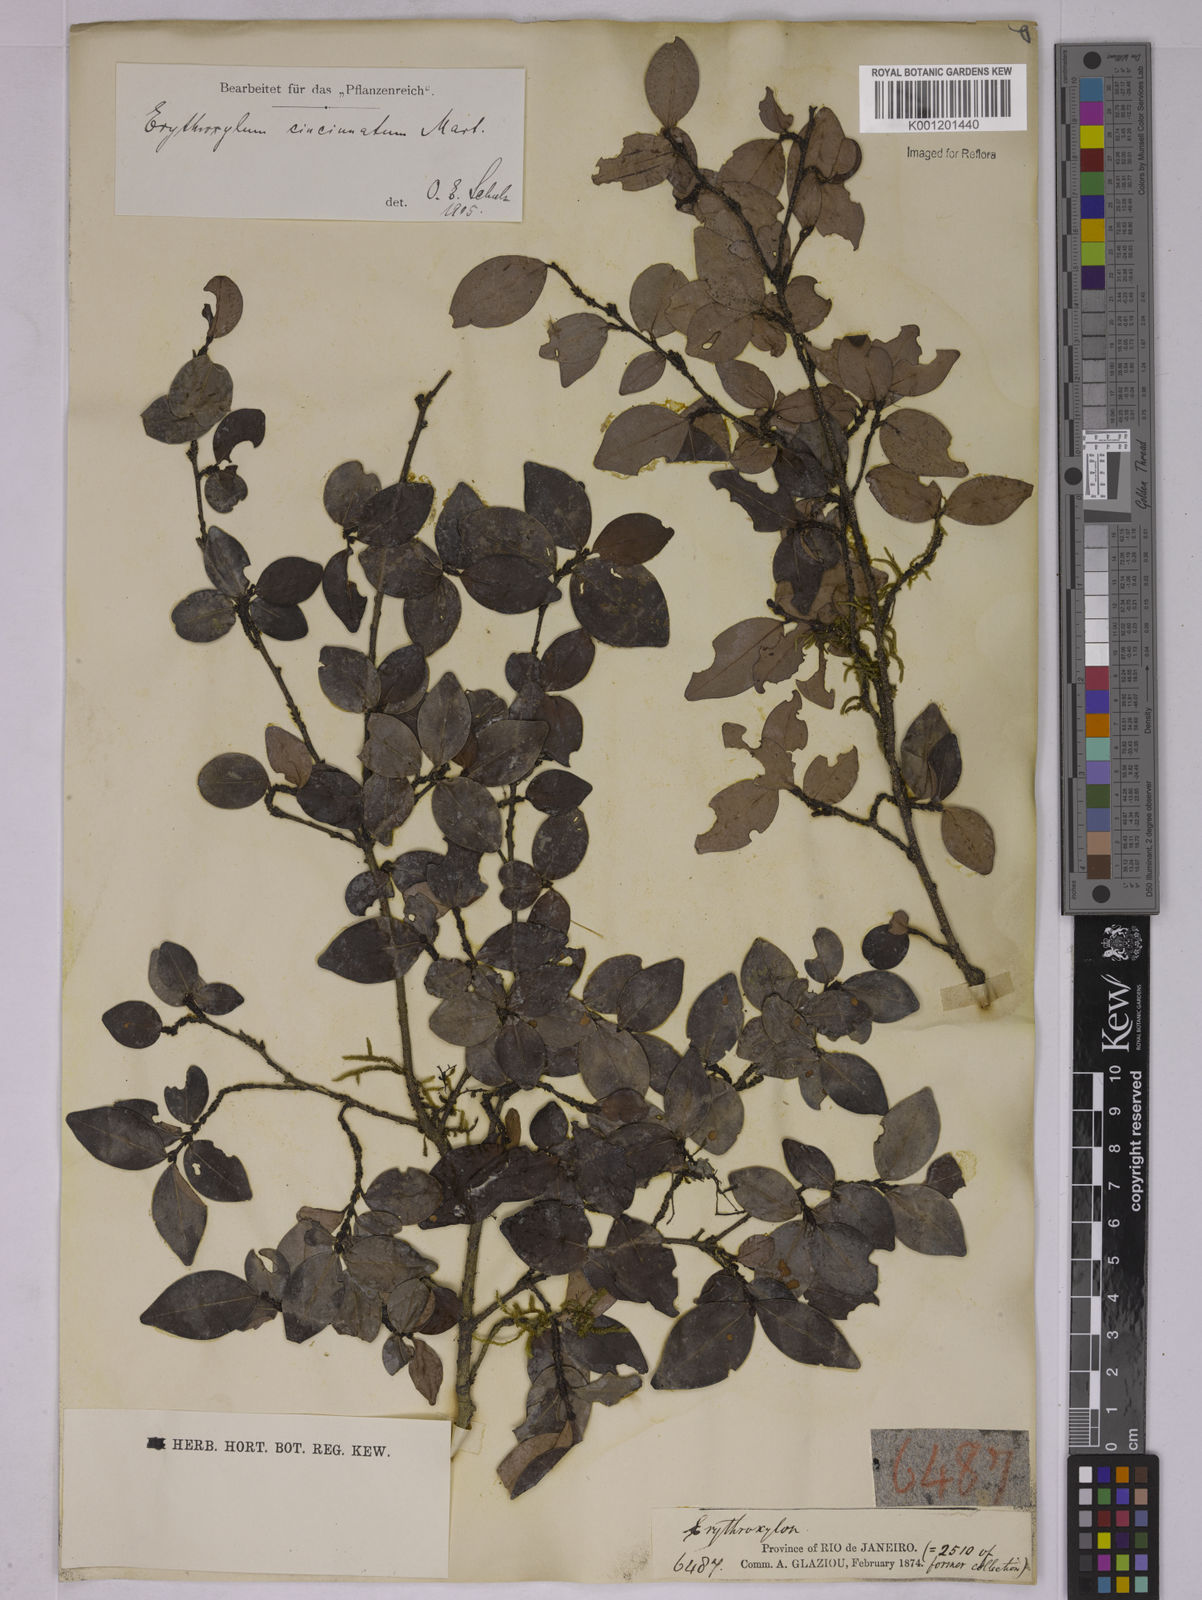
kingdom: Plantae
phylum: Tracheophyta
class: Magnoliopsida
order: Malpighiales
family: Erythroxylaceae
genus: Erythroxylum
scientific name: Erythroxylum cincinnatum
